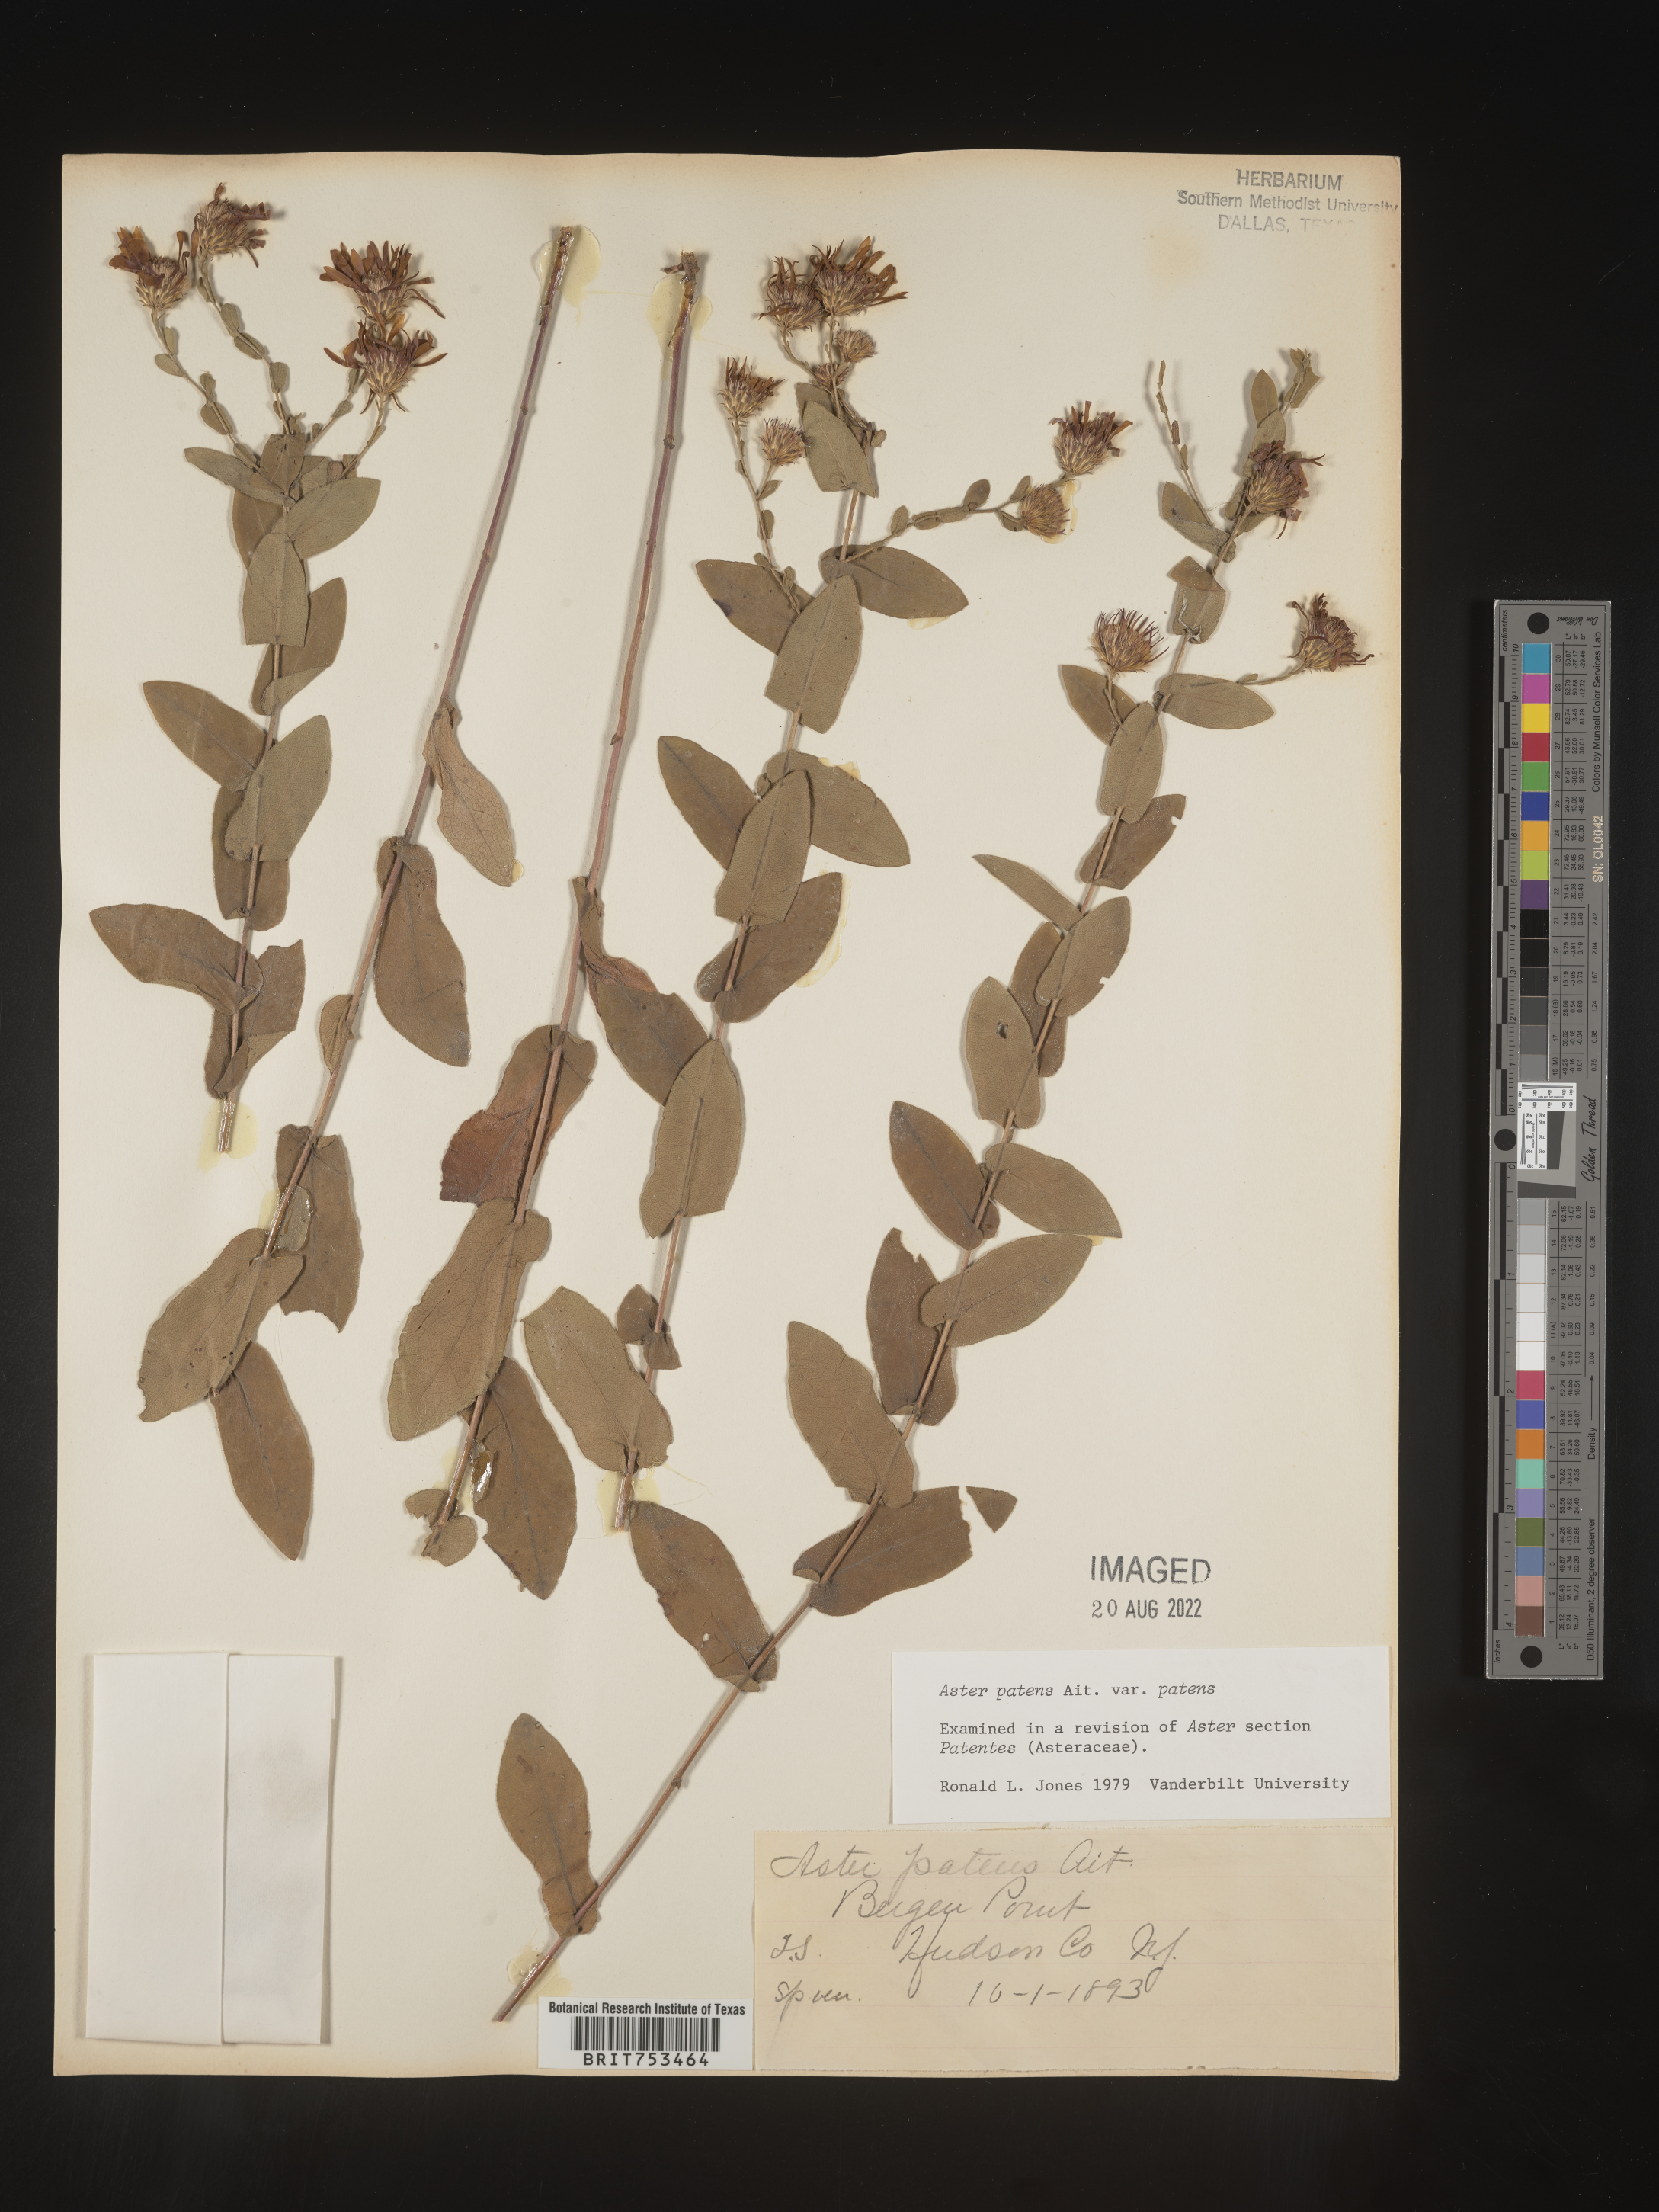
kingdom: Plantae
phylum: Tracheophyta
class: Magnoliopsida
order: Asterales
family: Asteraceae
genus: Symphyotrichum
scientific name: Symphyotrichum patens
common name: Late purple aster
